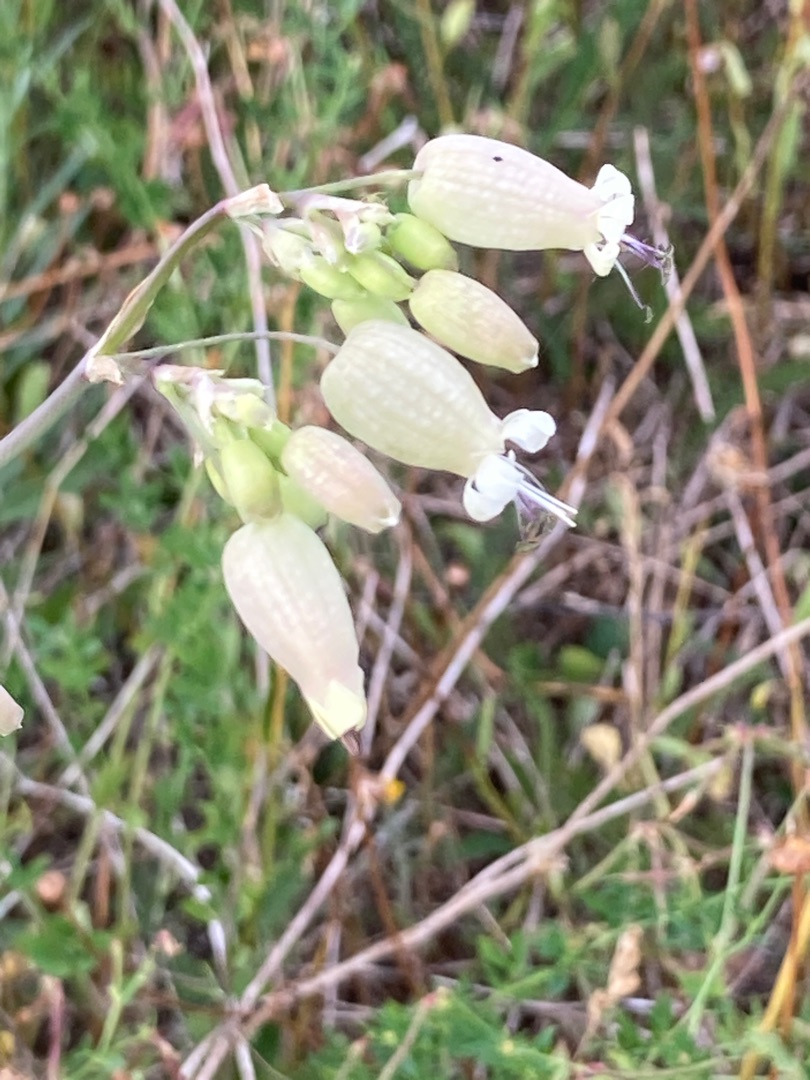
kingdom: Plantae
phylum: Tracheophyta
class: Magnoliopsida
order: Caryophyllales
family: Caryophyllaceae
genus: Silene
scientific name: Silene vulgaris
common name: Blæresmælde
